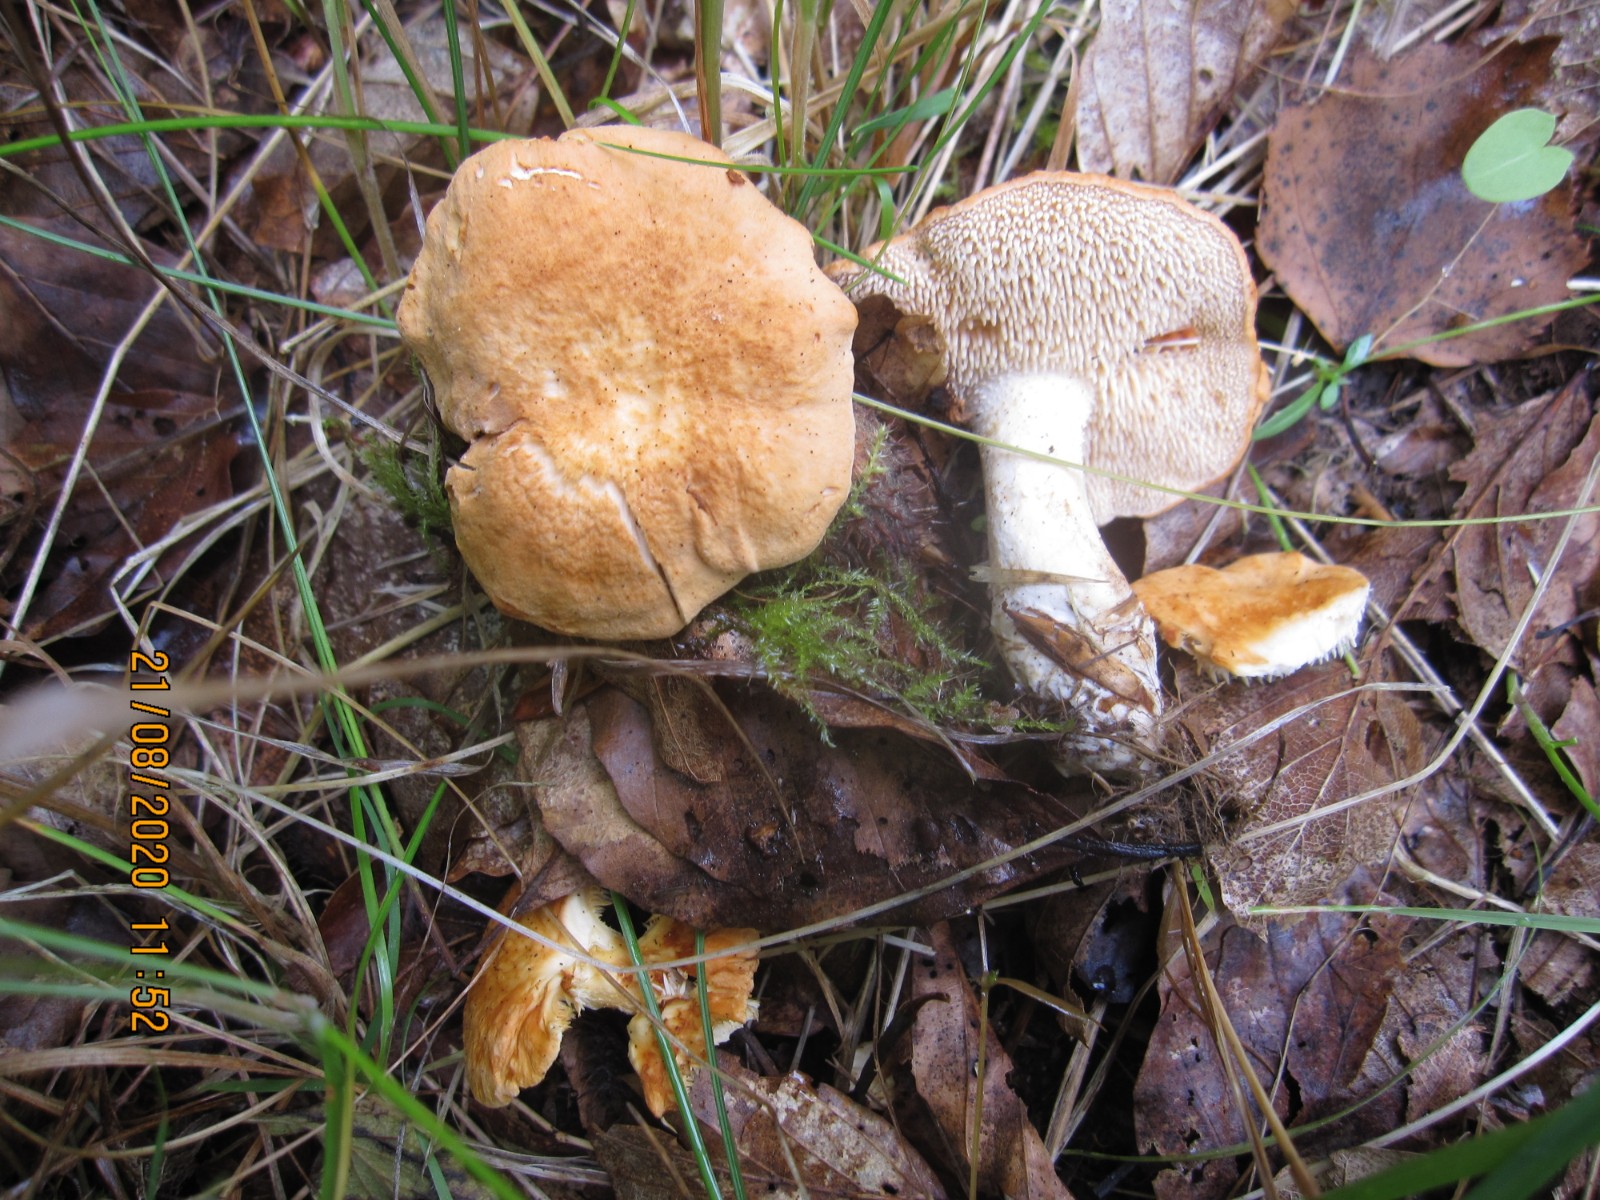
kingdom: Fungi
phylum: Basidiomycota
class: Agaricomycetes
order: Cantharellales
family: Hydnaceae
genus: Hydnum
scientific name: Hydnum rufescens
